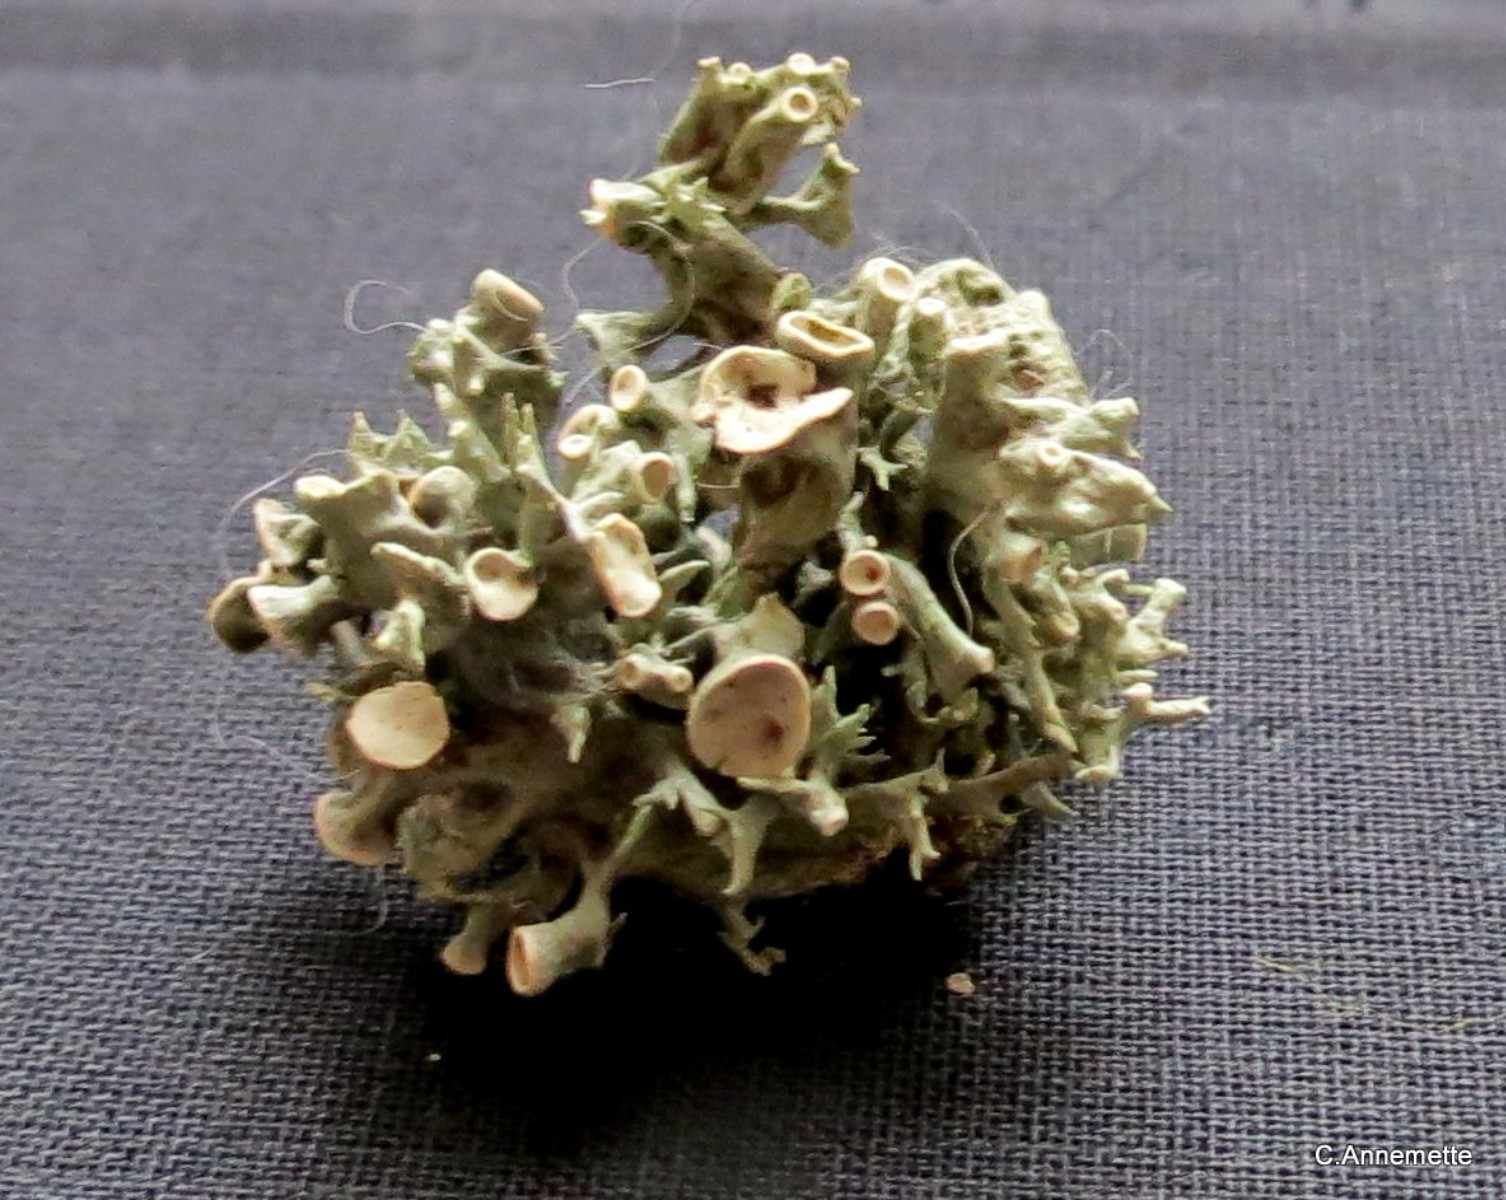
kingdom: Fungi
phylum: Ascomycota
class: Lecanoromycetes
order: Lecanorales
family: Ramalinaceae
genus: Ramalina
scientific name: Ramalina fastigiata
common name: tue-grenlav
